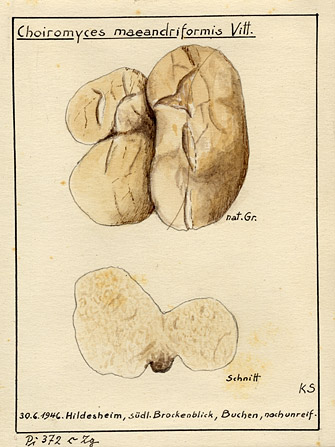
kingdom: Fungi
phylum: Ascomycota
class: Pezizomycetes
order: Pezizales
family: Tuberaceae
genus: Choiromyces
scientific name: Choiromyces meandriformis
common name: White truffle
